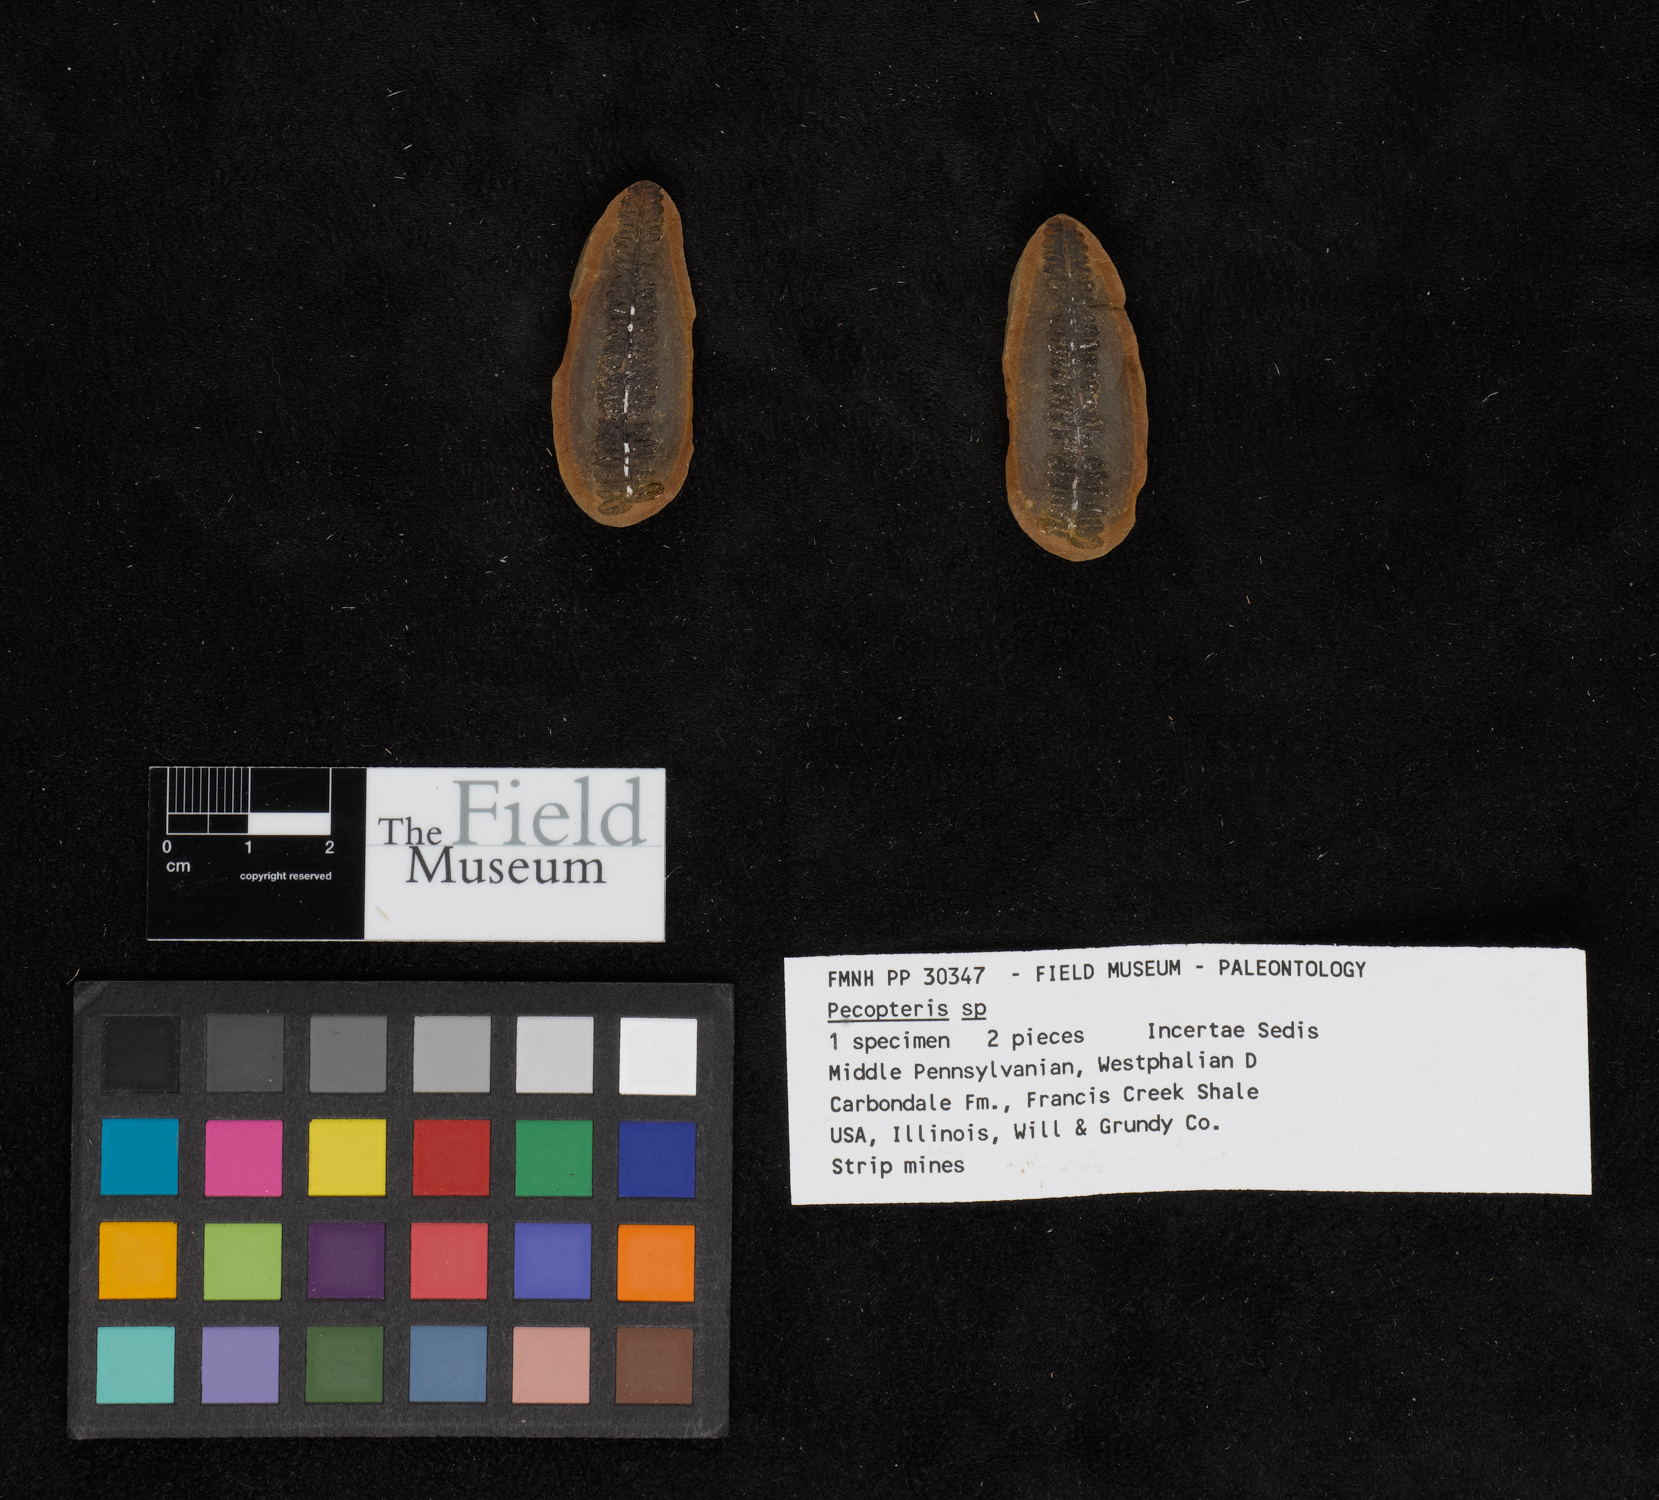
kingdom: Plantae
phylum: Tracheophyta
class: Polypodiopsida
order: Marattiales
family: Asterothecaceae
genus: Pecopteris
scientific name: Pecopteris
